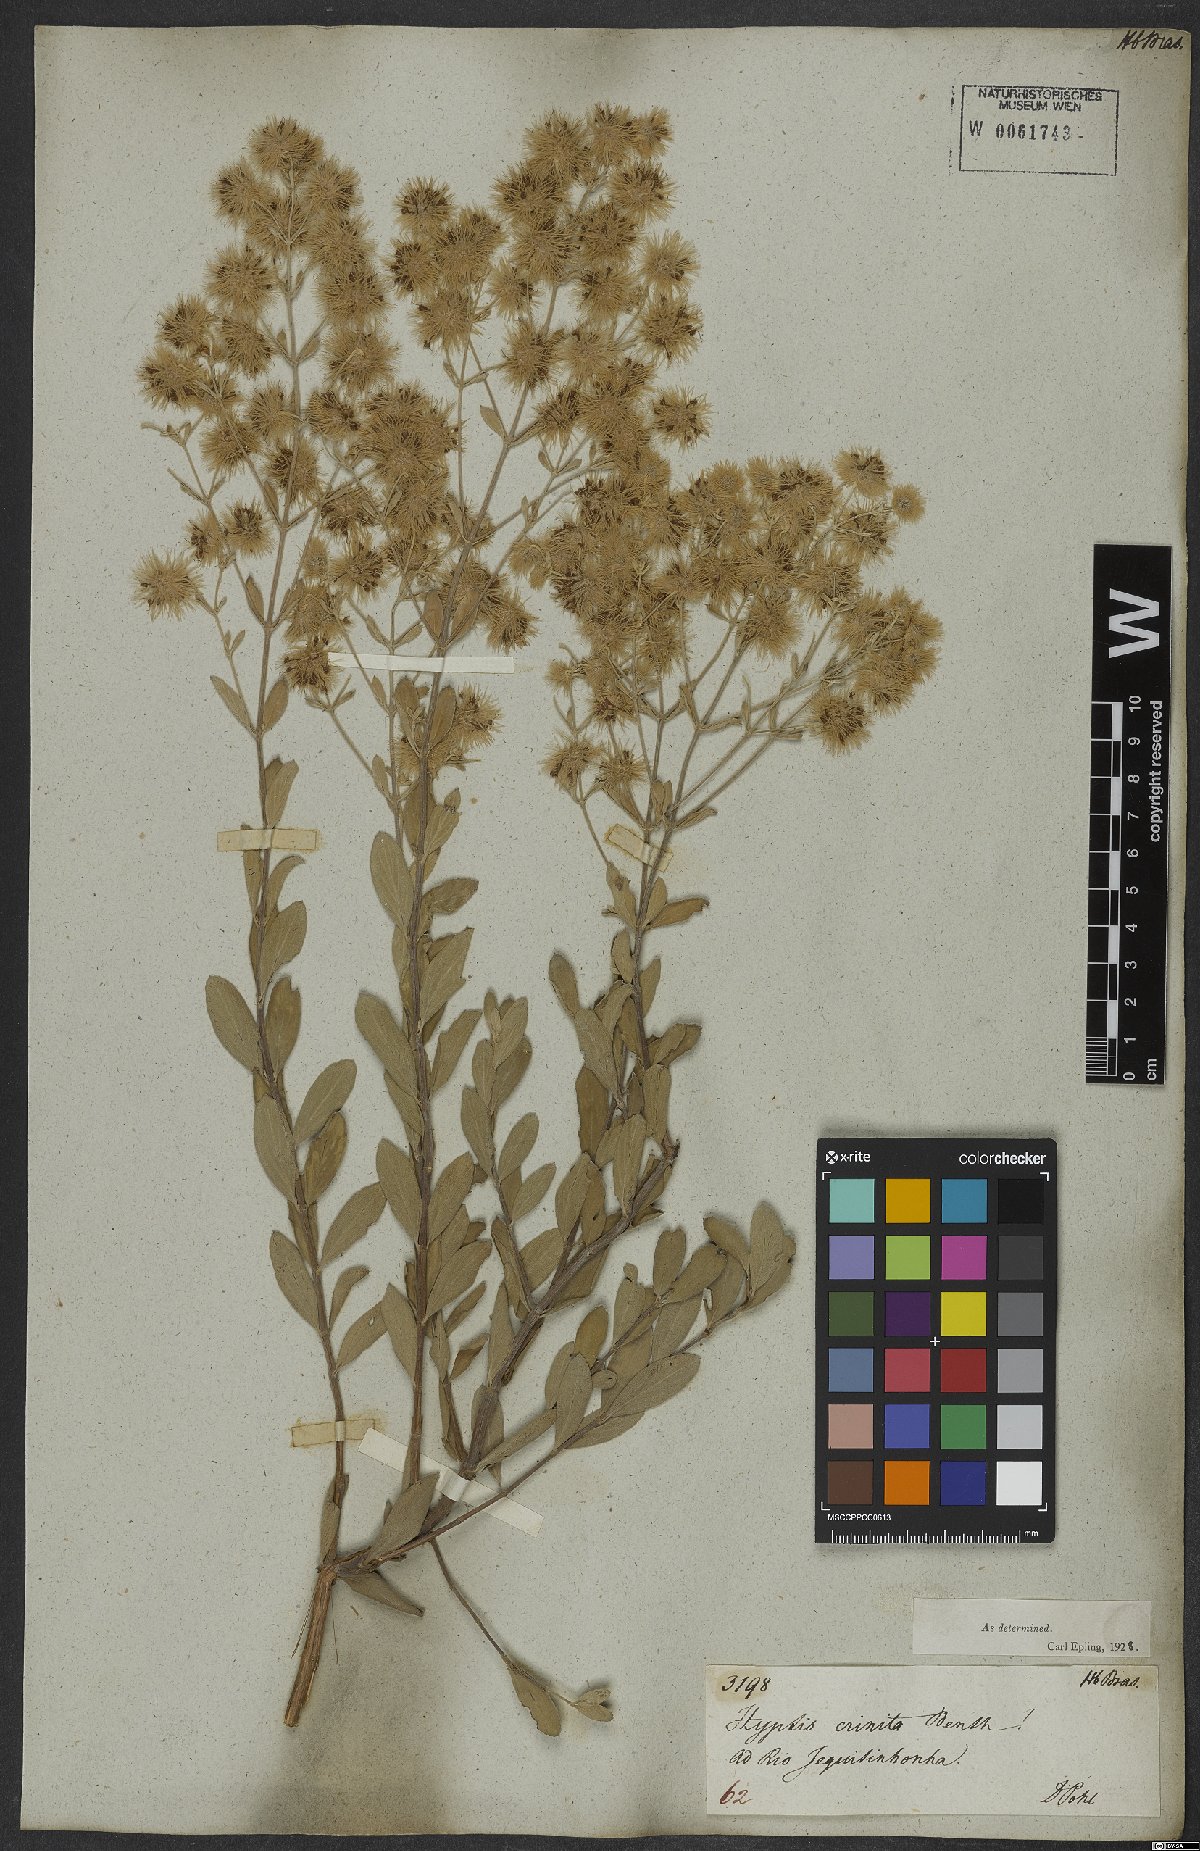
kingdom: Plantae
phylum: Tracheophyta
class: Magnoliopsida
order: Lamiales
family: Lamiaceae
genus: Medusantha
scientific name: Medusantha crinita
